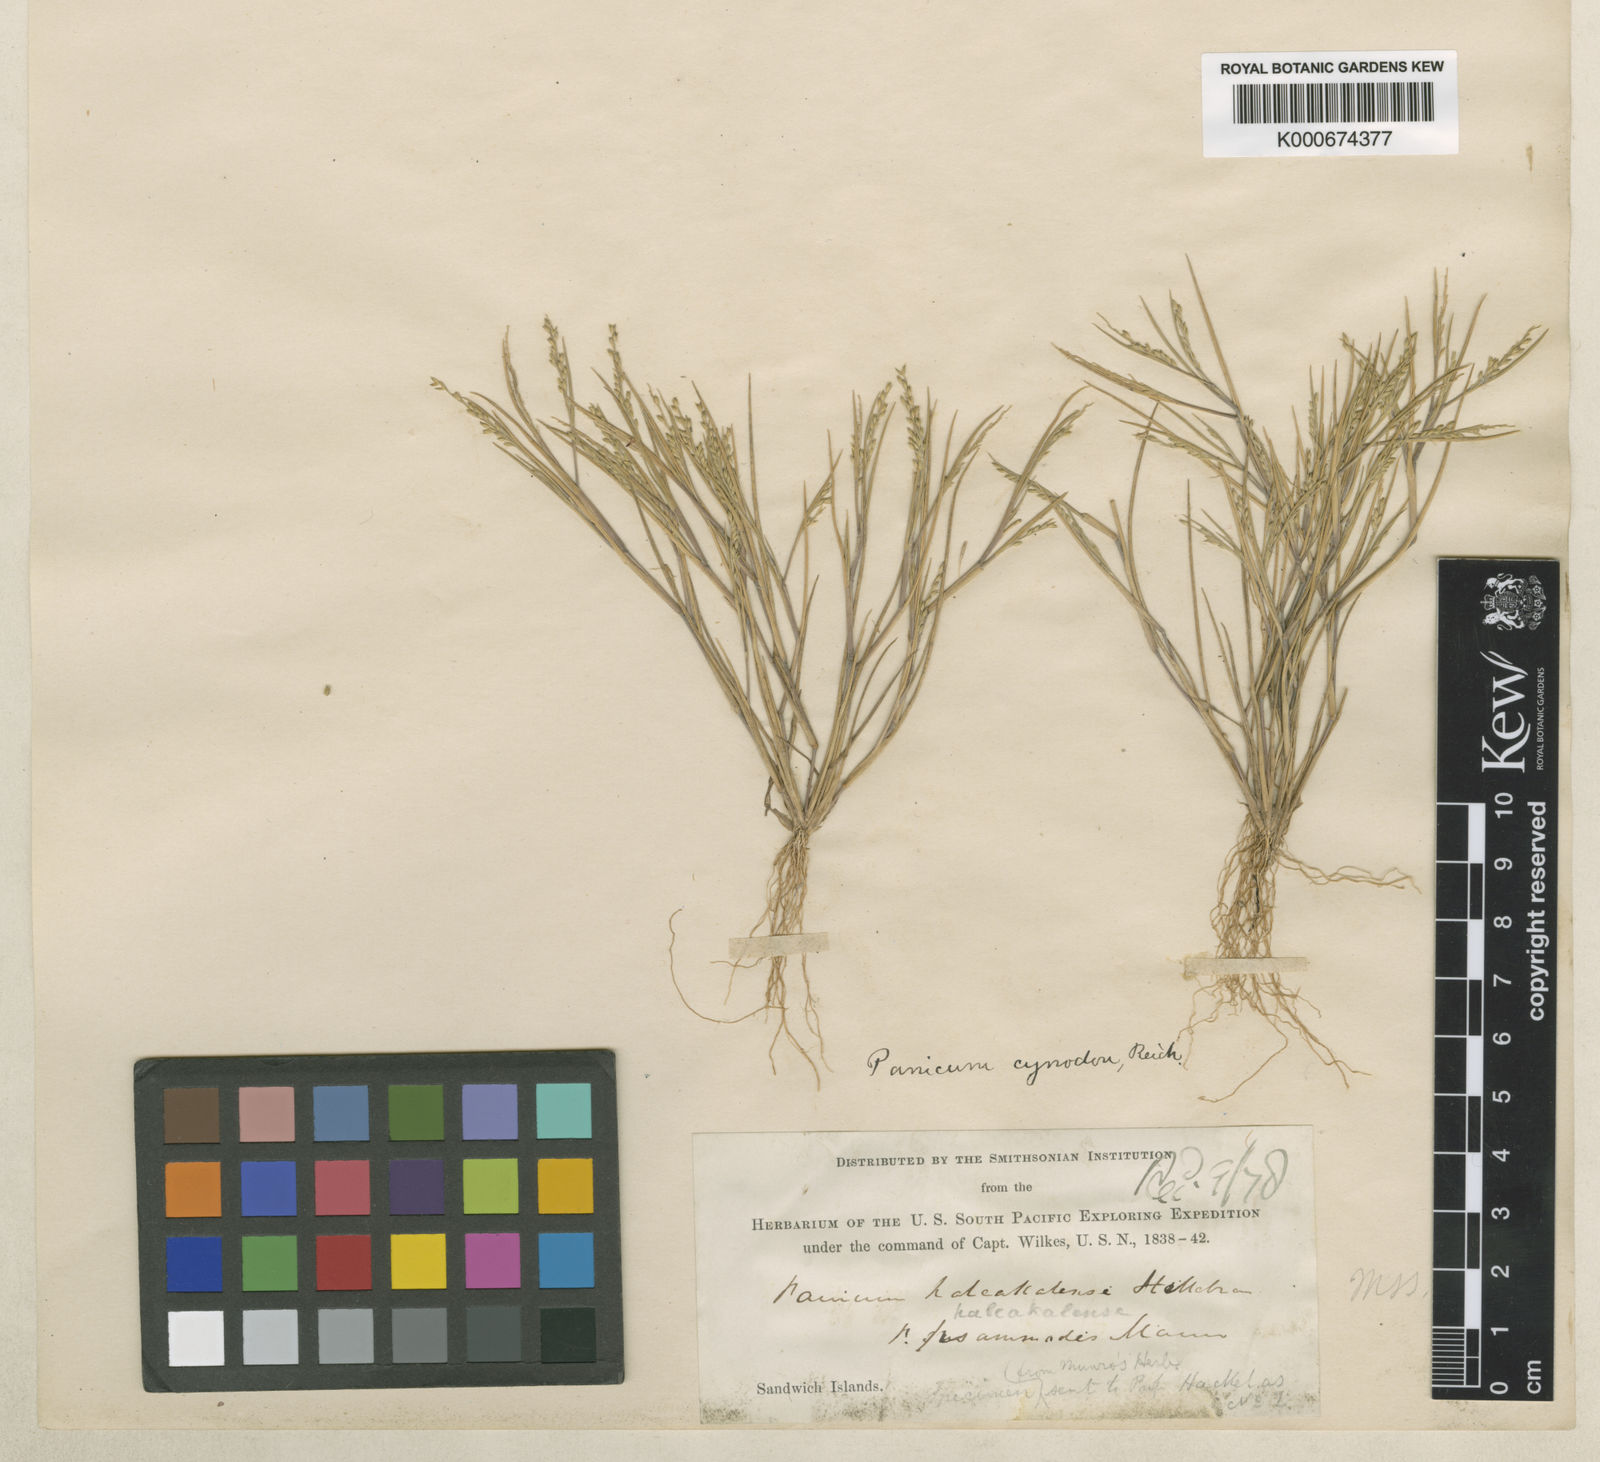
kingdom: Plantae
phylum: Tracheophyta
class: Liliopsida
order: Poales
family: Poaceae
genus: Dichanthelium
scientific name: Dichanthelium cynodon
